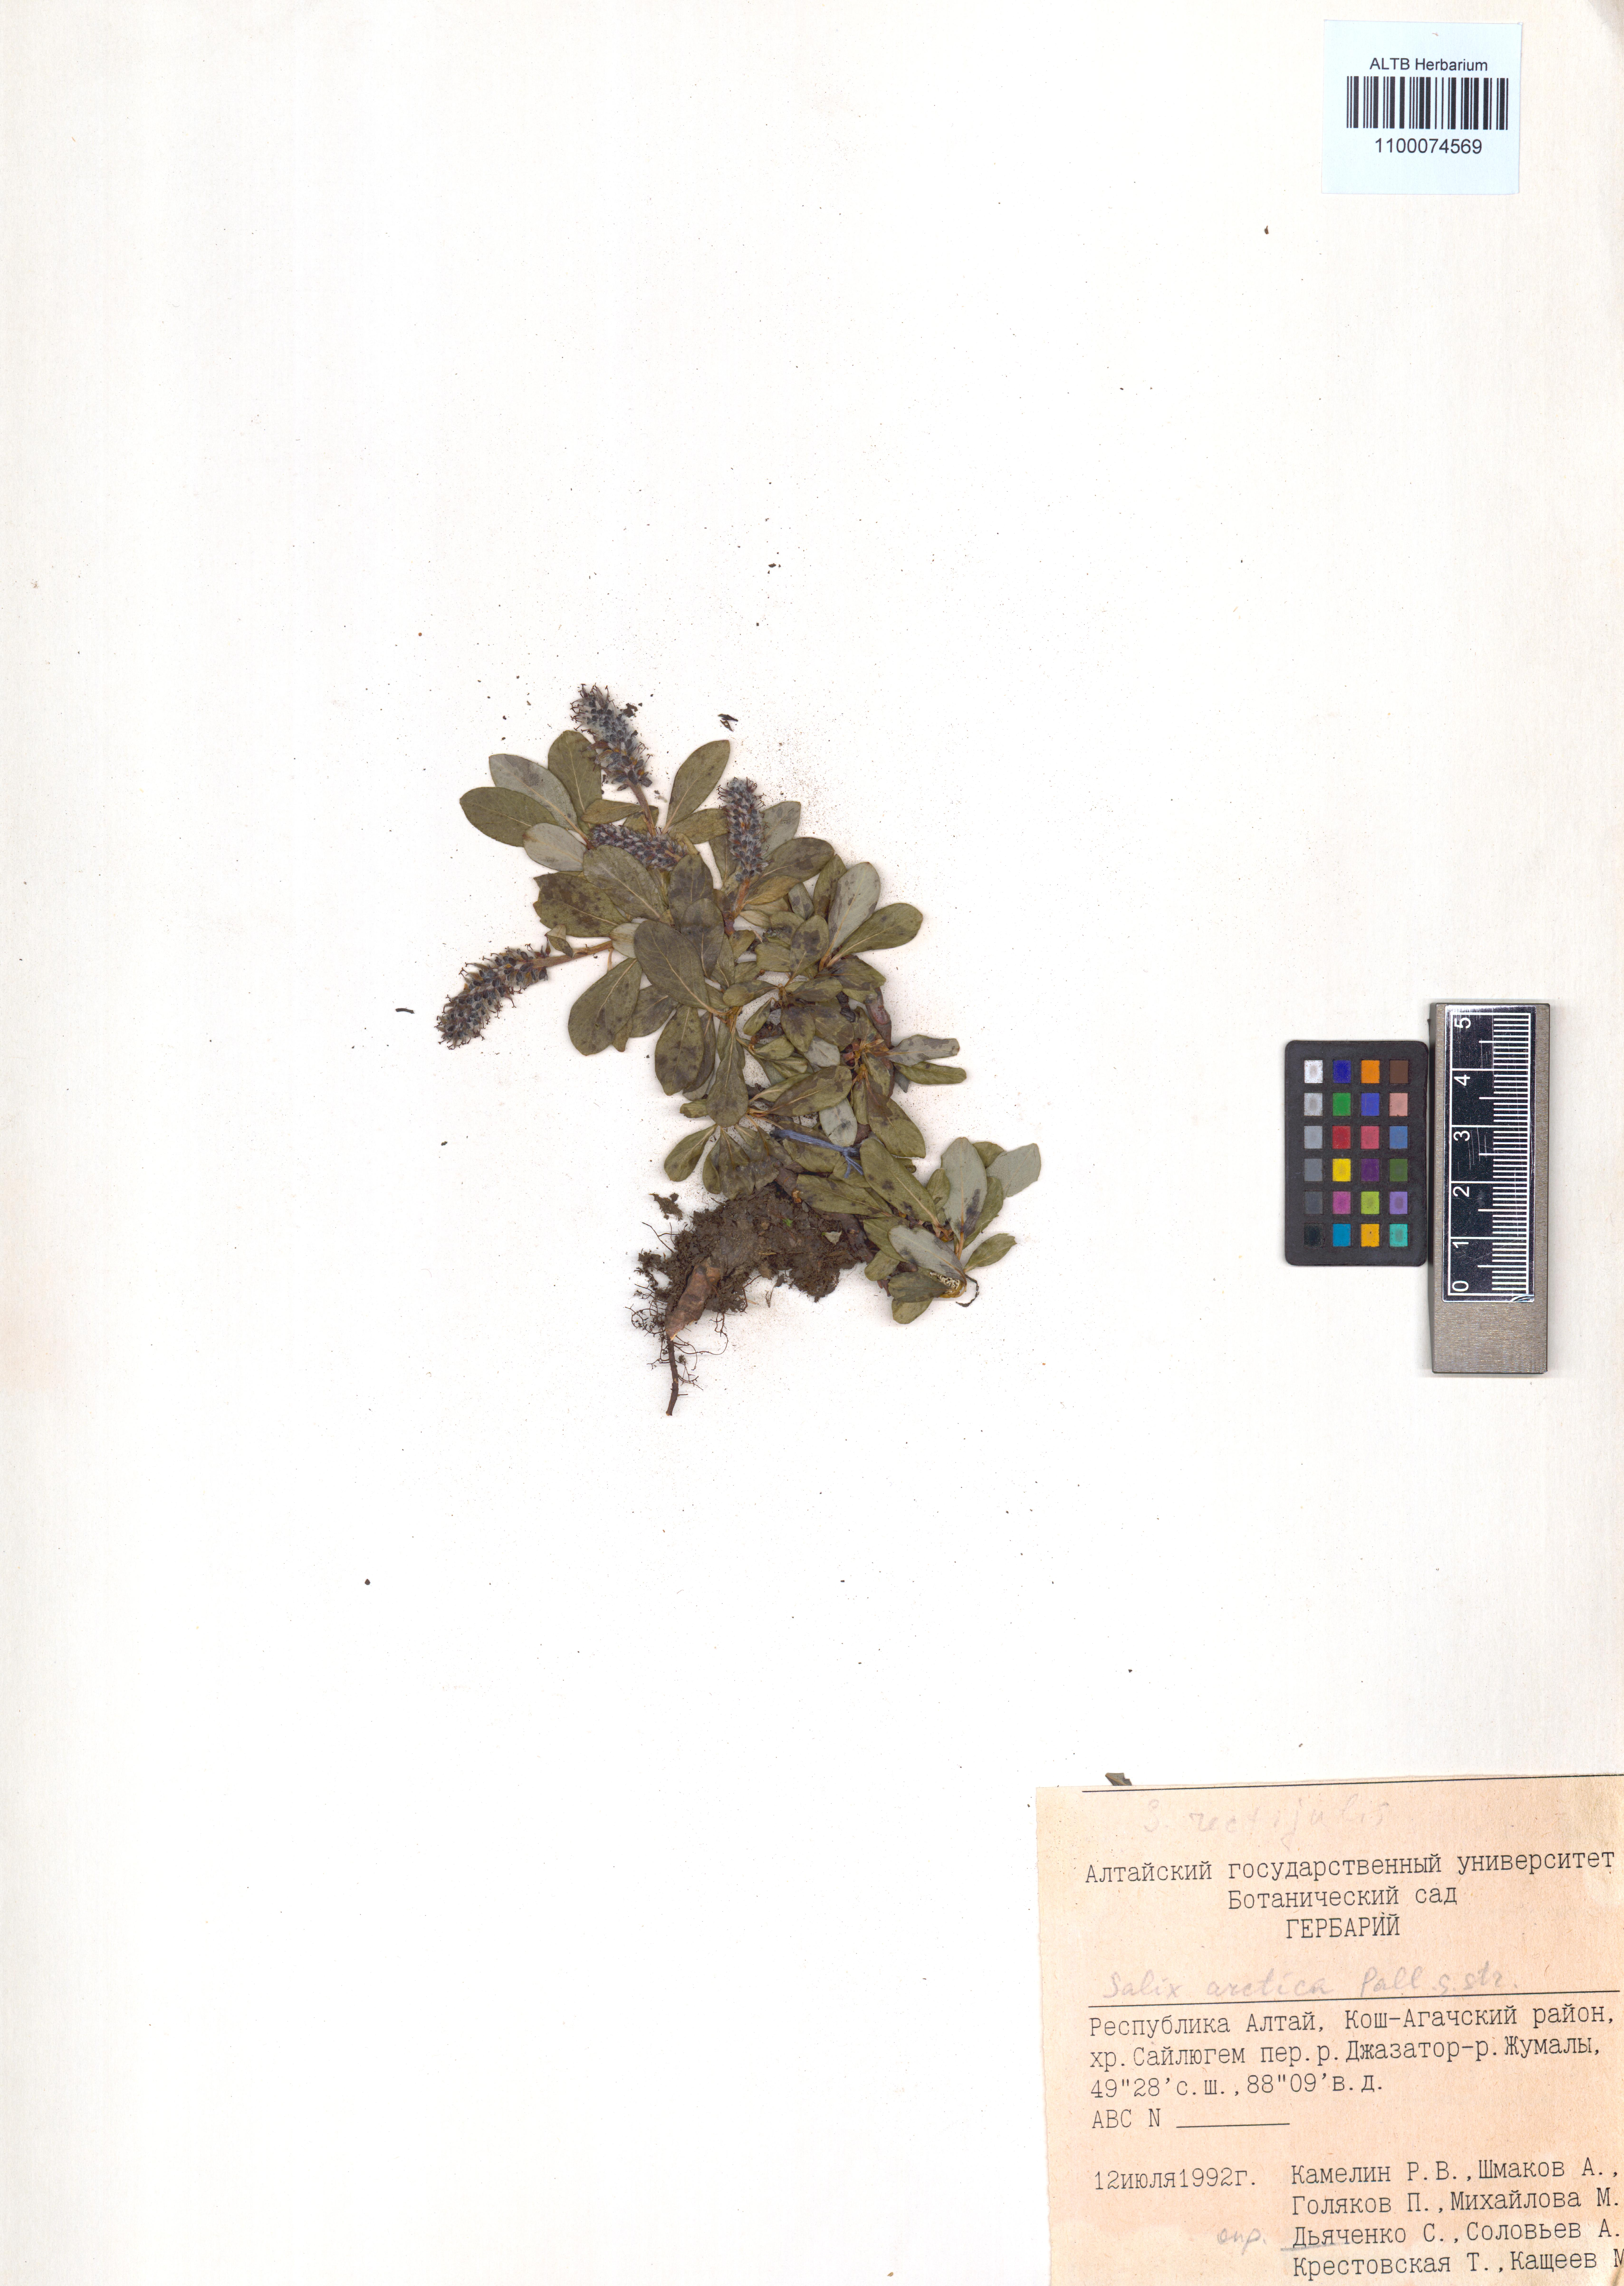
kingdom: Plantae
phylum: Tracheophyta
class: Magnoliopsida
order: Malpighiales
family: Salicaceae
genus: Salix
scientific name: Salix arctica
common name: Arctic willow
